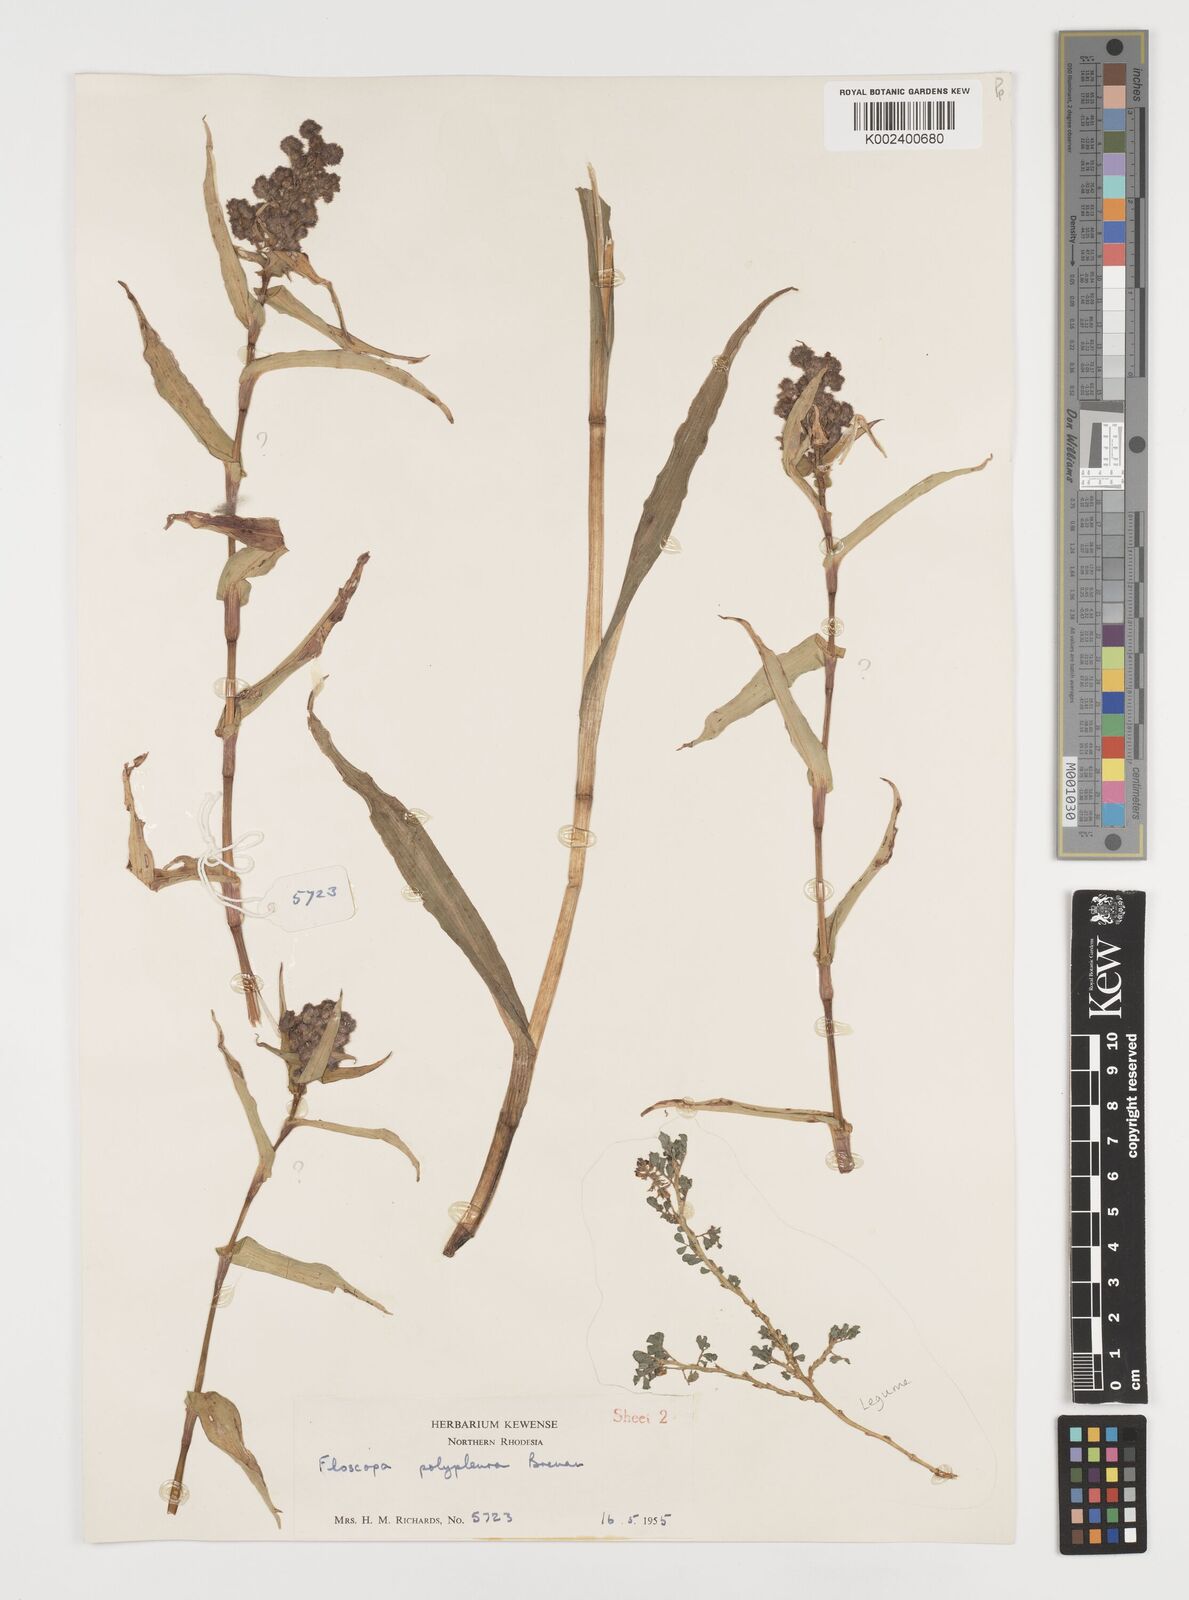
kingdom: Plantae
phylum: Tracheophyta
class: Liliopsida
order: Commelinales
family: Commelinaceae
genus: Floscopa
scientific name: Floscopa polypleura
